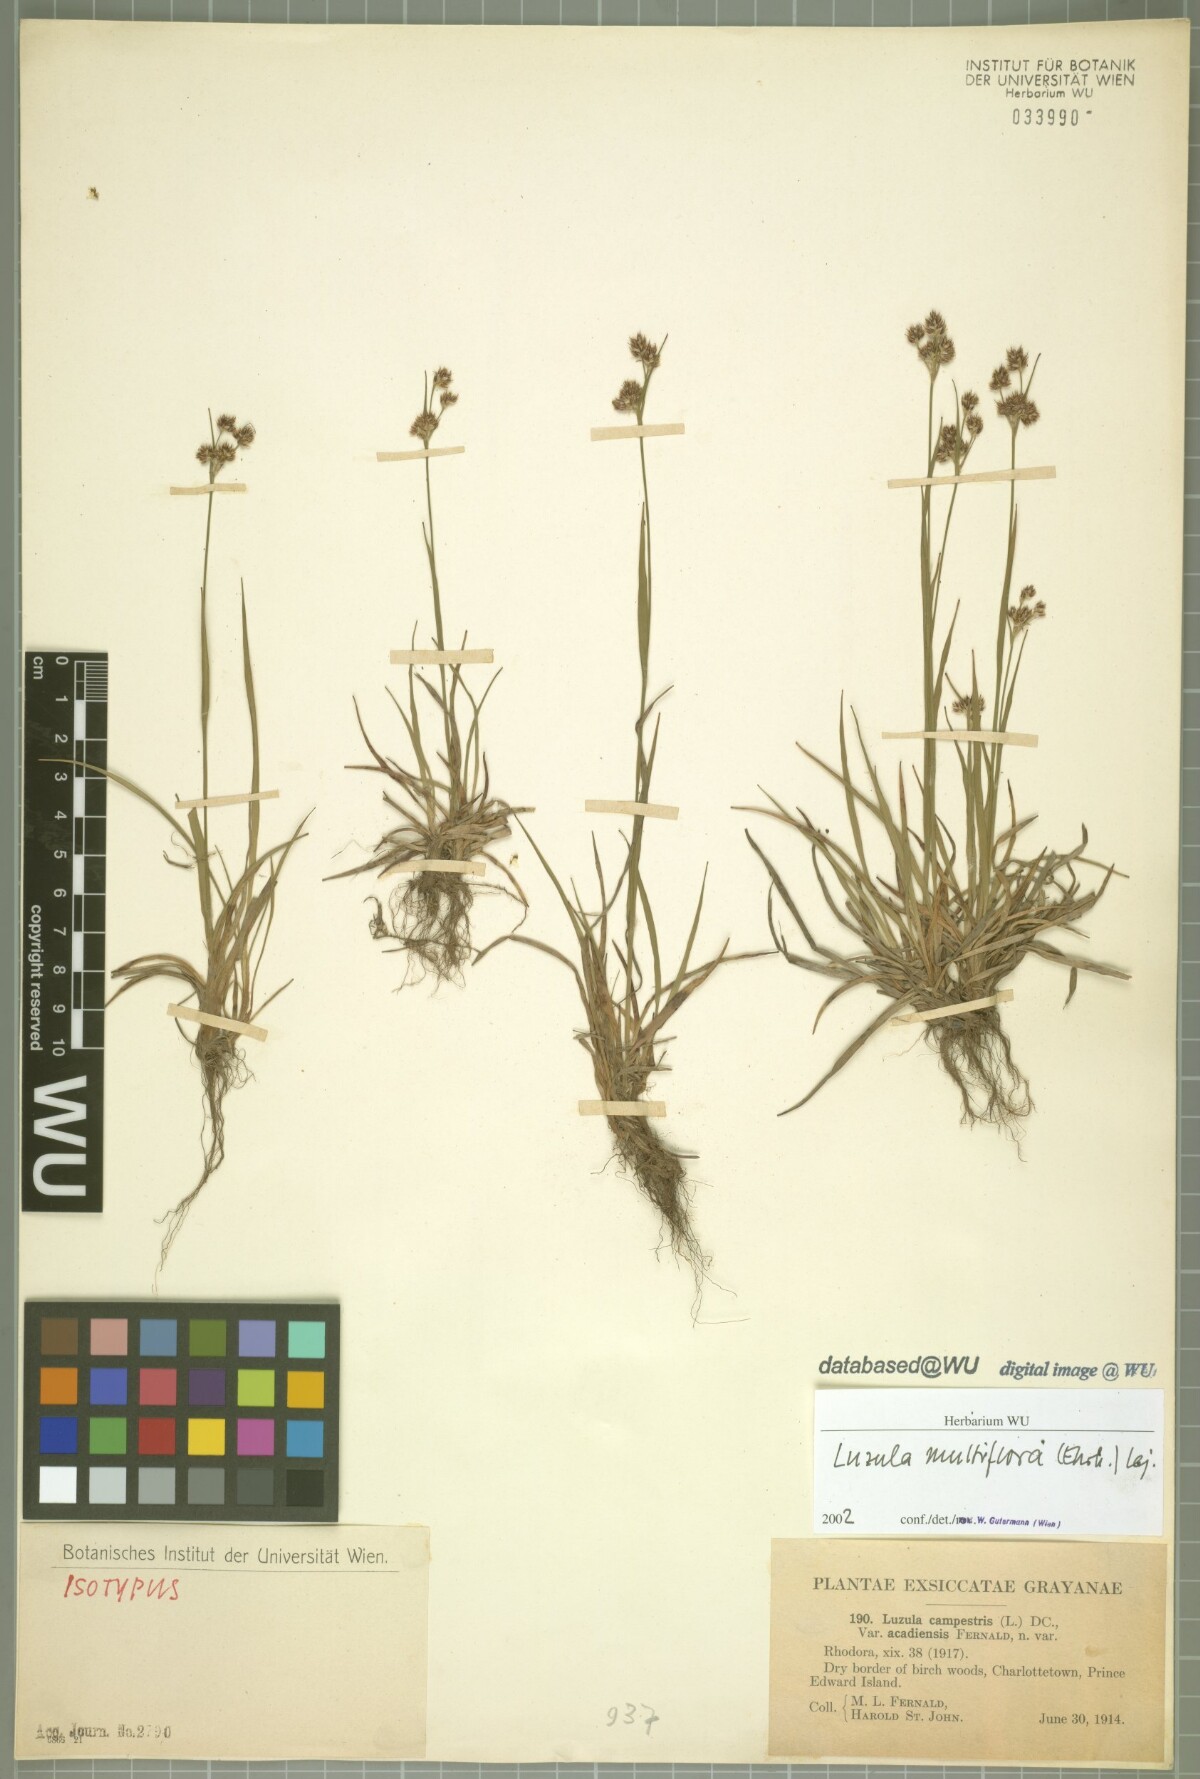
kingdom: Plantae
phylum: Tracheophyta
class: Liliopsida
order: Poales
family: Juncaceae
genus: Luzula
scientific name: Luzula multiflora
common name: Heath wood-rush
